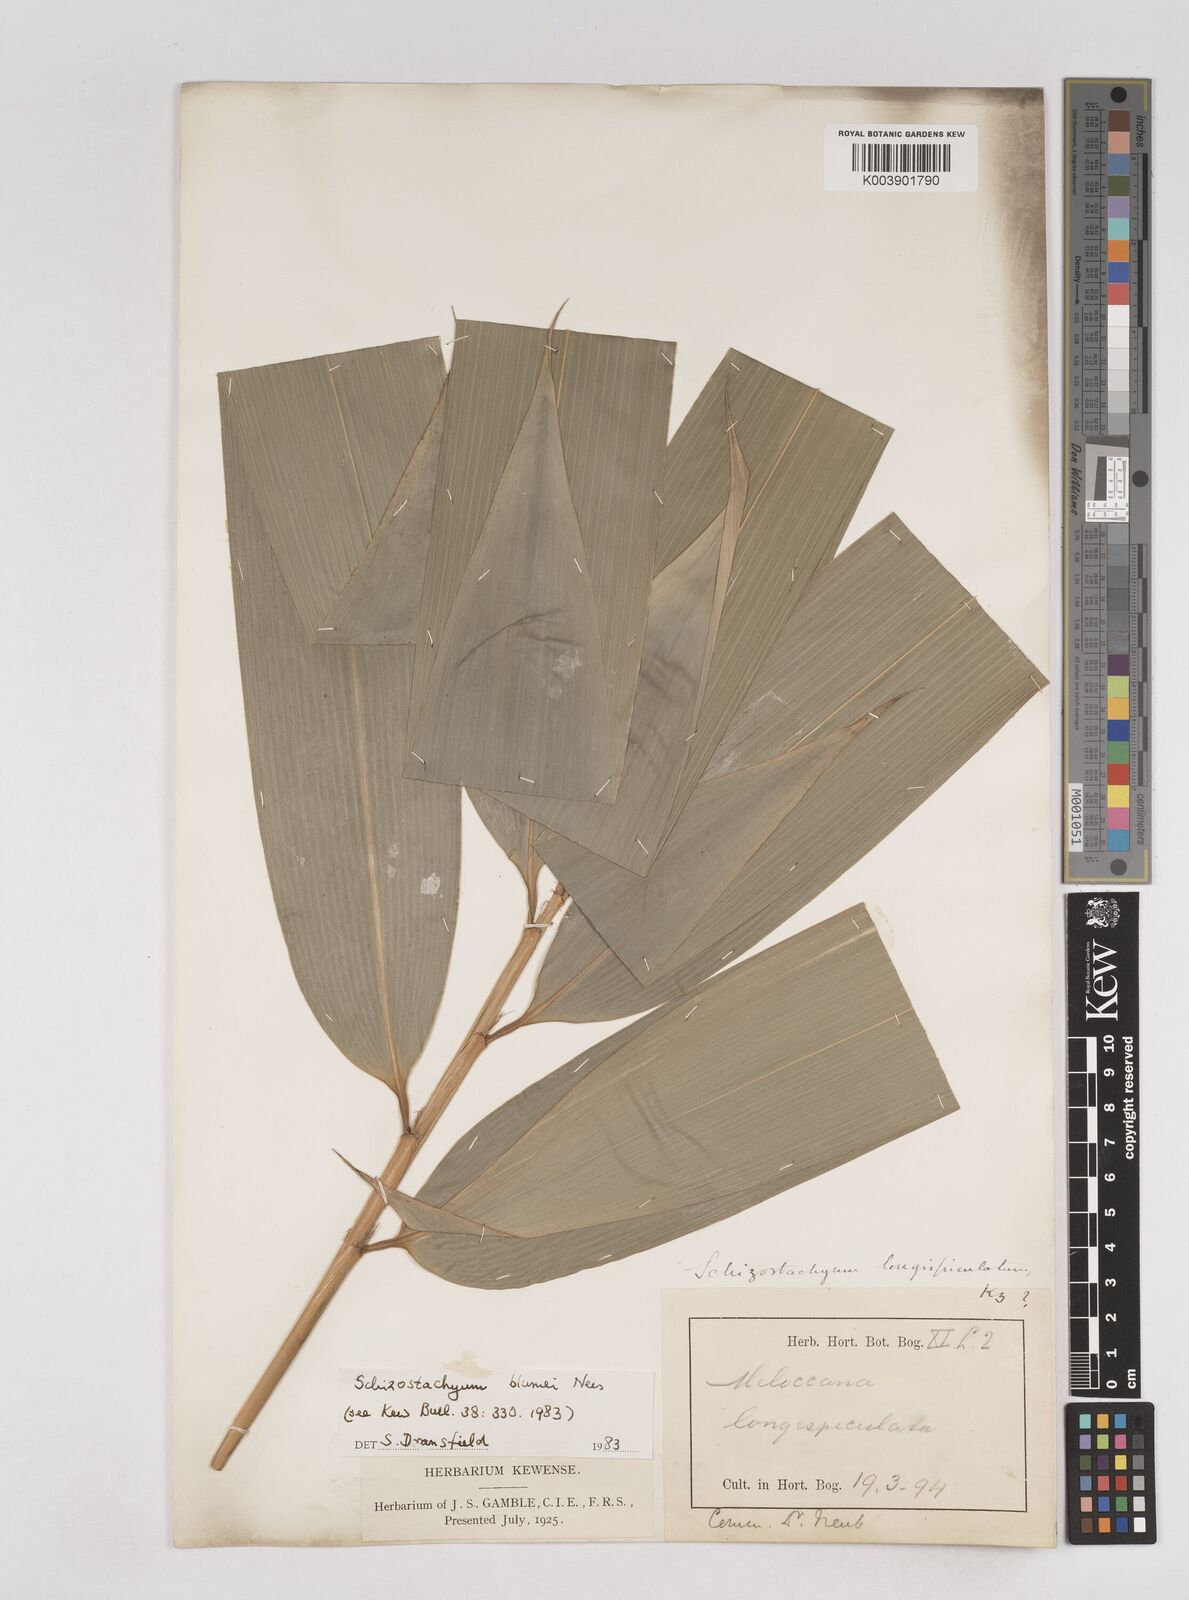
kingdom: Plantae
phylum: Tracheophyta
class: Liliopsida
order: Poales
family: Poaceae
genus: Schizostachyum
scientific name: Schizostachyum blumei
